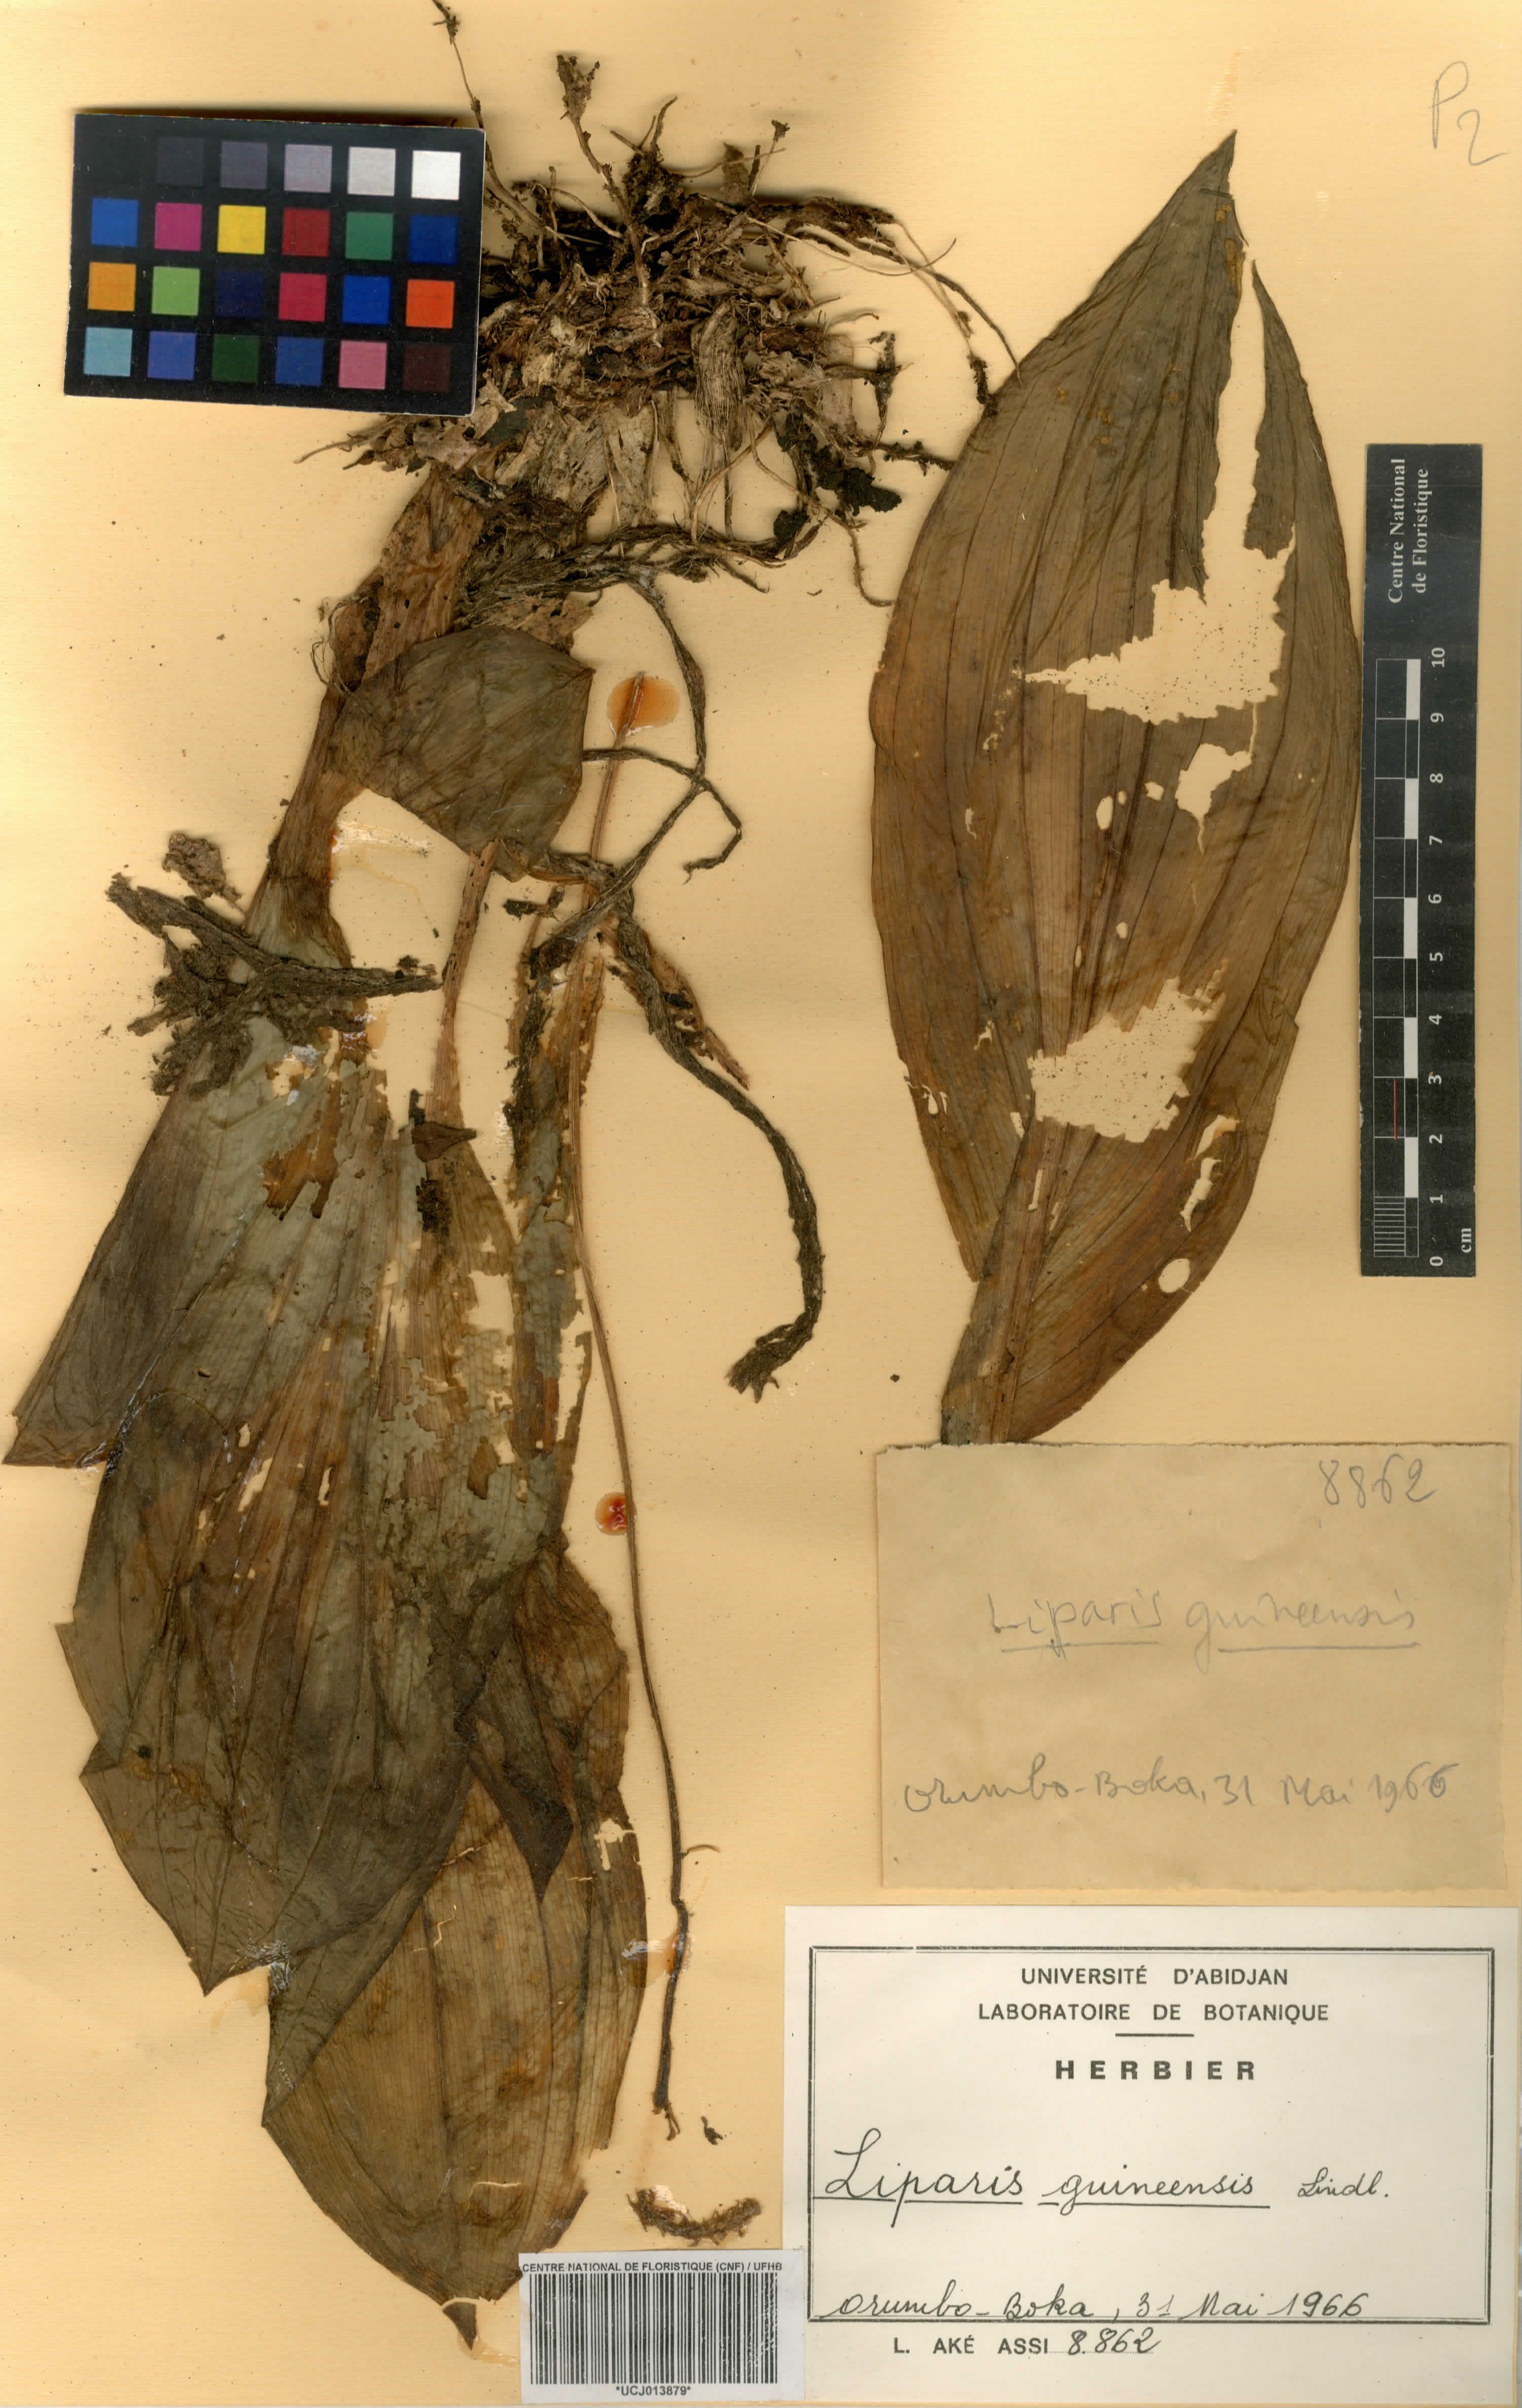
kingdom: Plantae
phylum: Tracheophyta
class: Liliopsida
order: Asparagales
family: Orchidaceae
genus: Liparis
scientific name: Liparis nervosa
